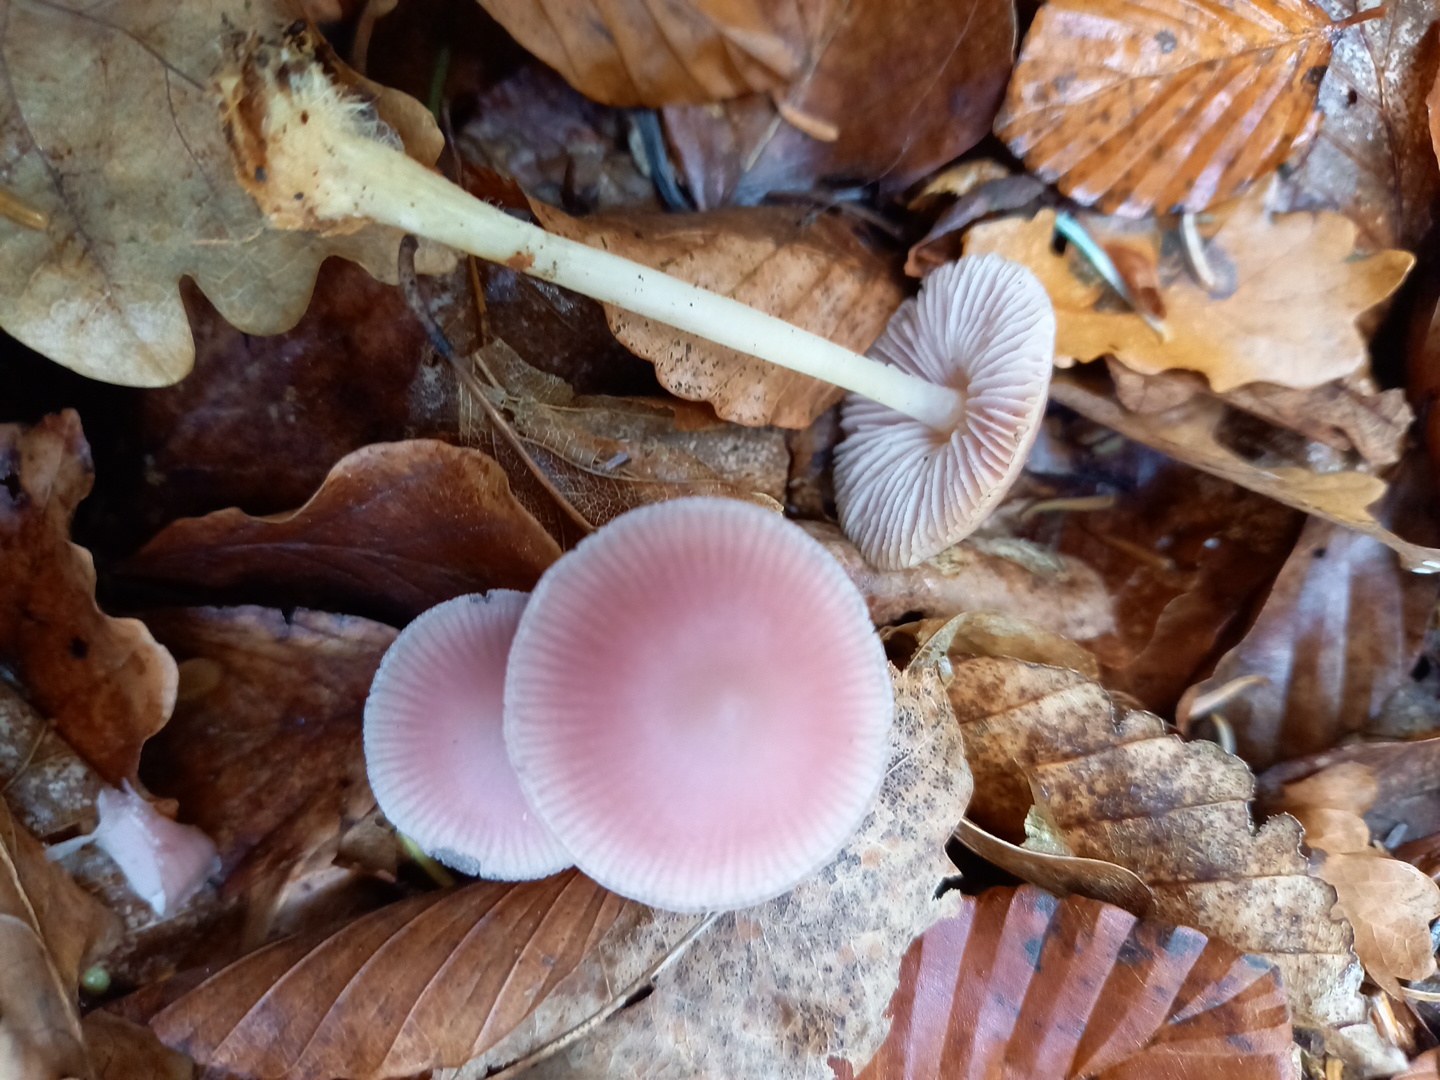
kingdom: Fungi
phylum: Basidiomycota
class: Agaricomycetes
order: Agaricales
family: Mycenaceae
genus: Mycena
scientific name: Mycena rosea
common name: rosa huesvamp
